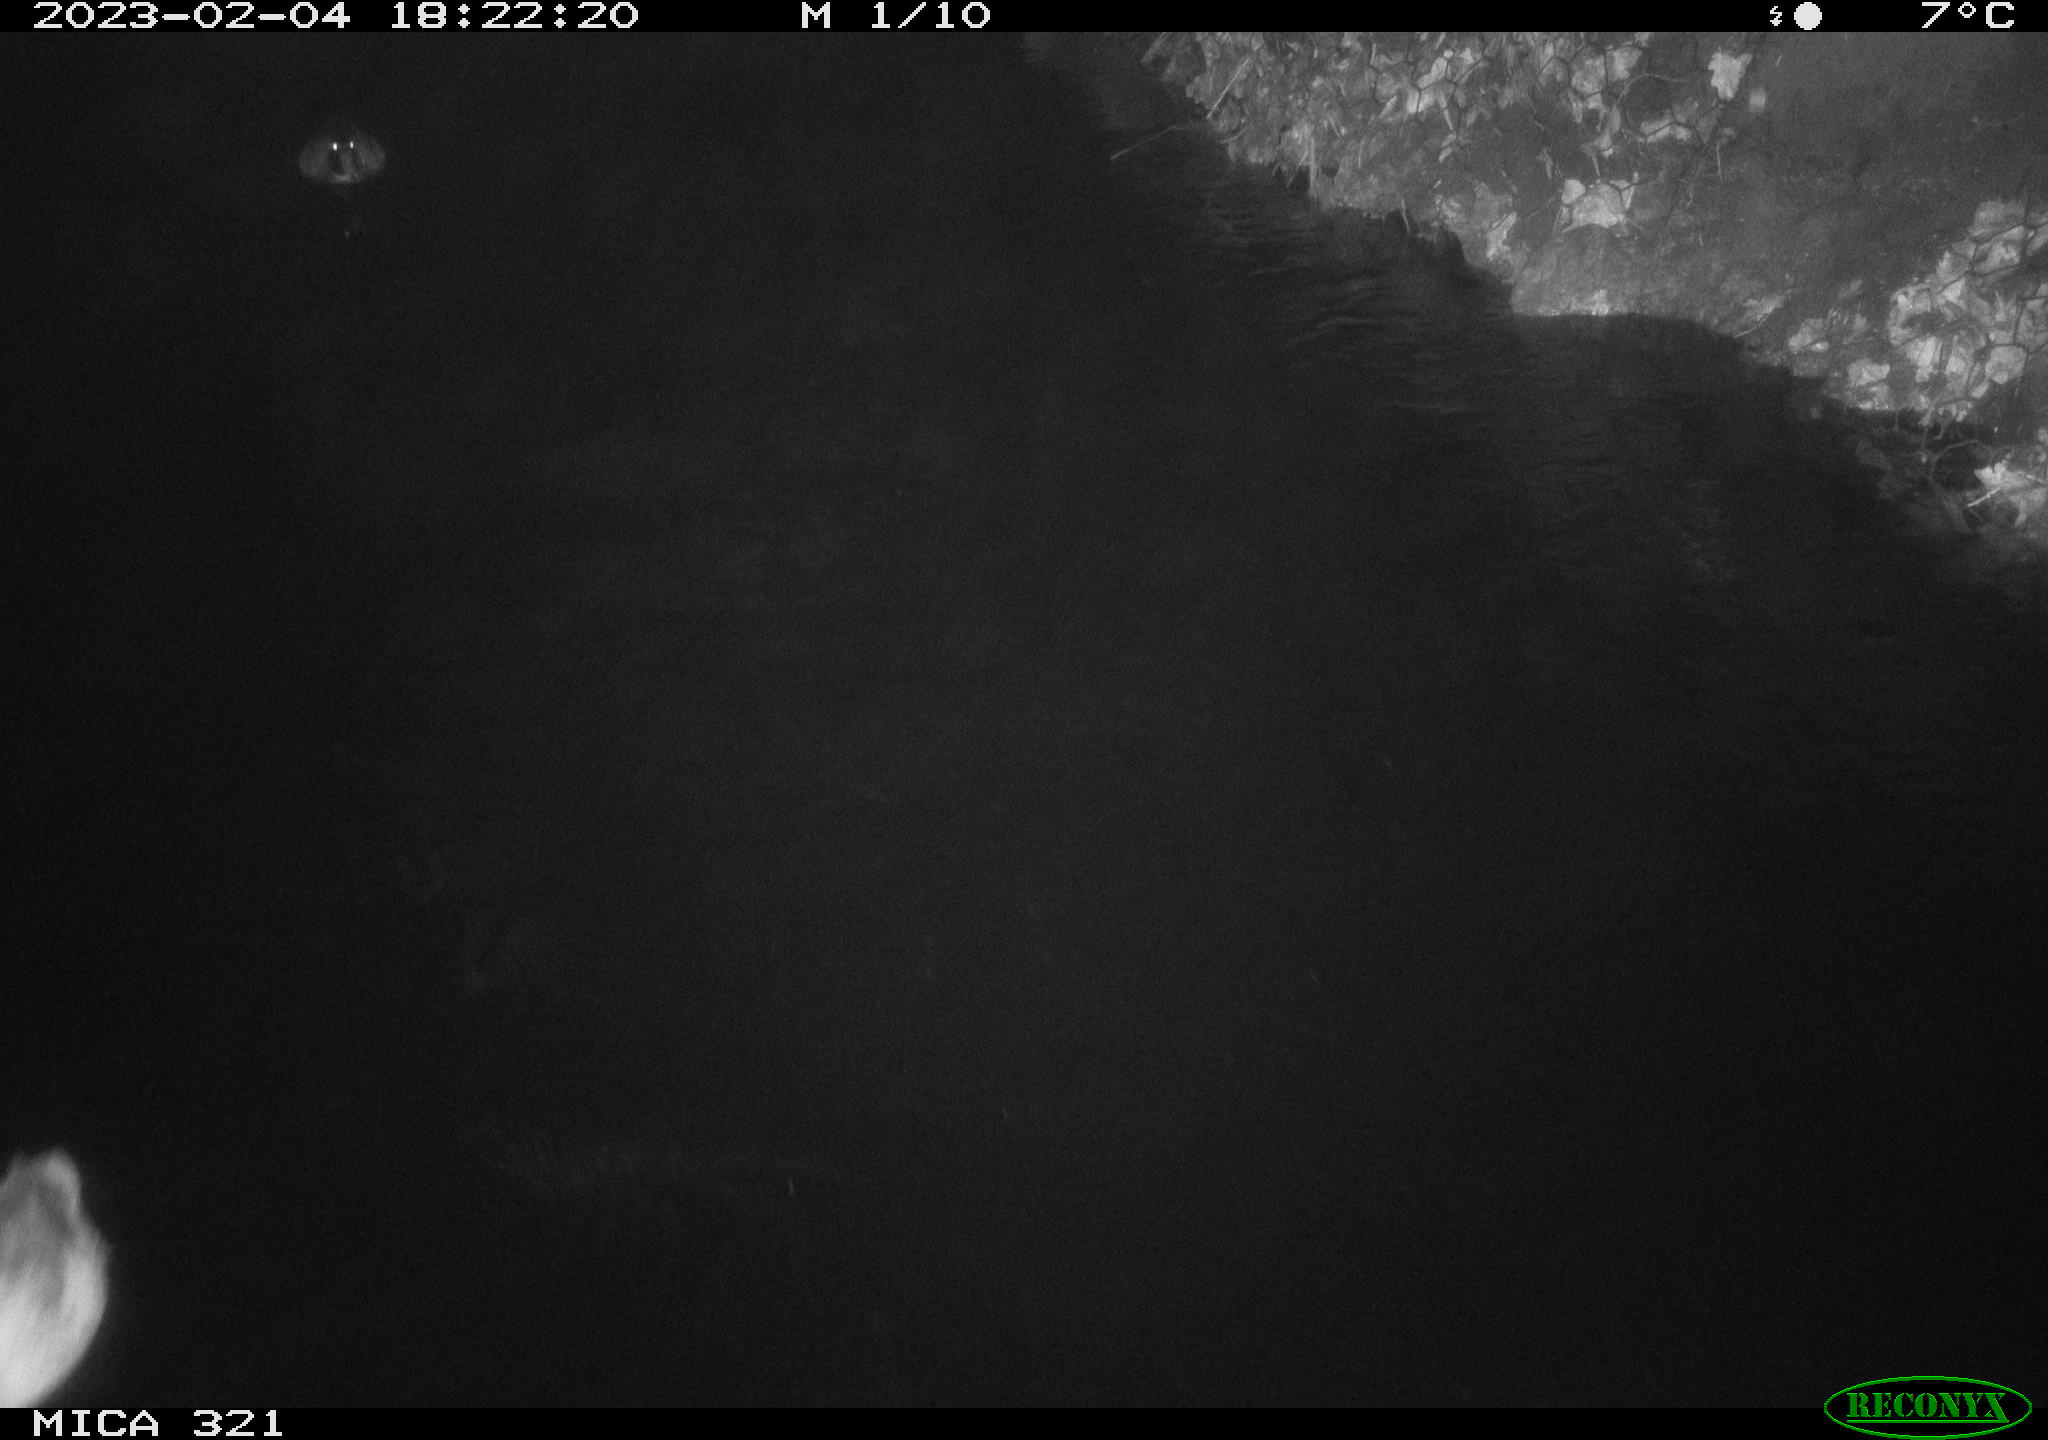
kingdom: Animalia
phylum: Chordata
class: Aves
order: Anseriformes
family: Anatidae
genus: Anas
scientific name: Anas
